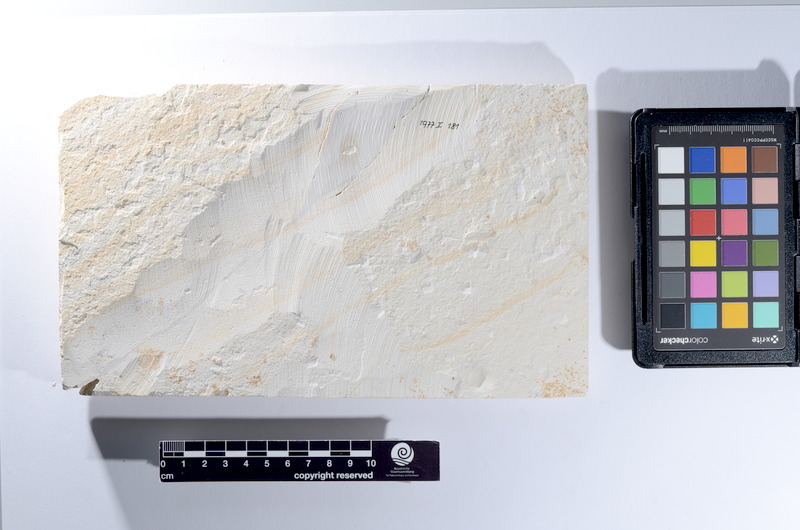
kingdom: Animalia
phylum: Chordata
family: Pholidophoridae
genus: Pholidophorus
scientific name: Pholidophorus
